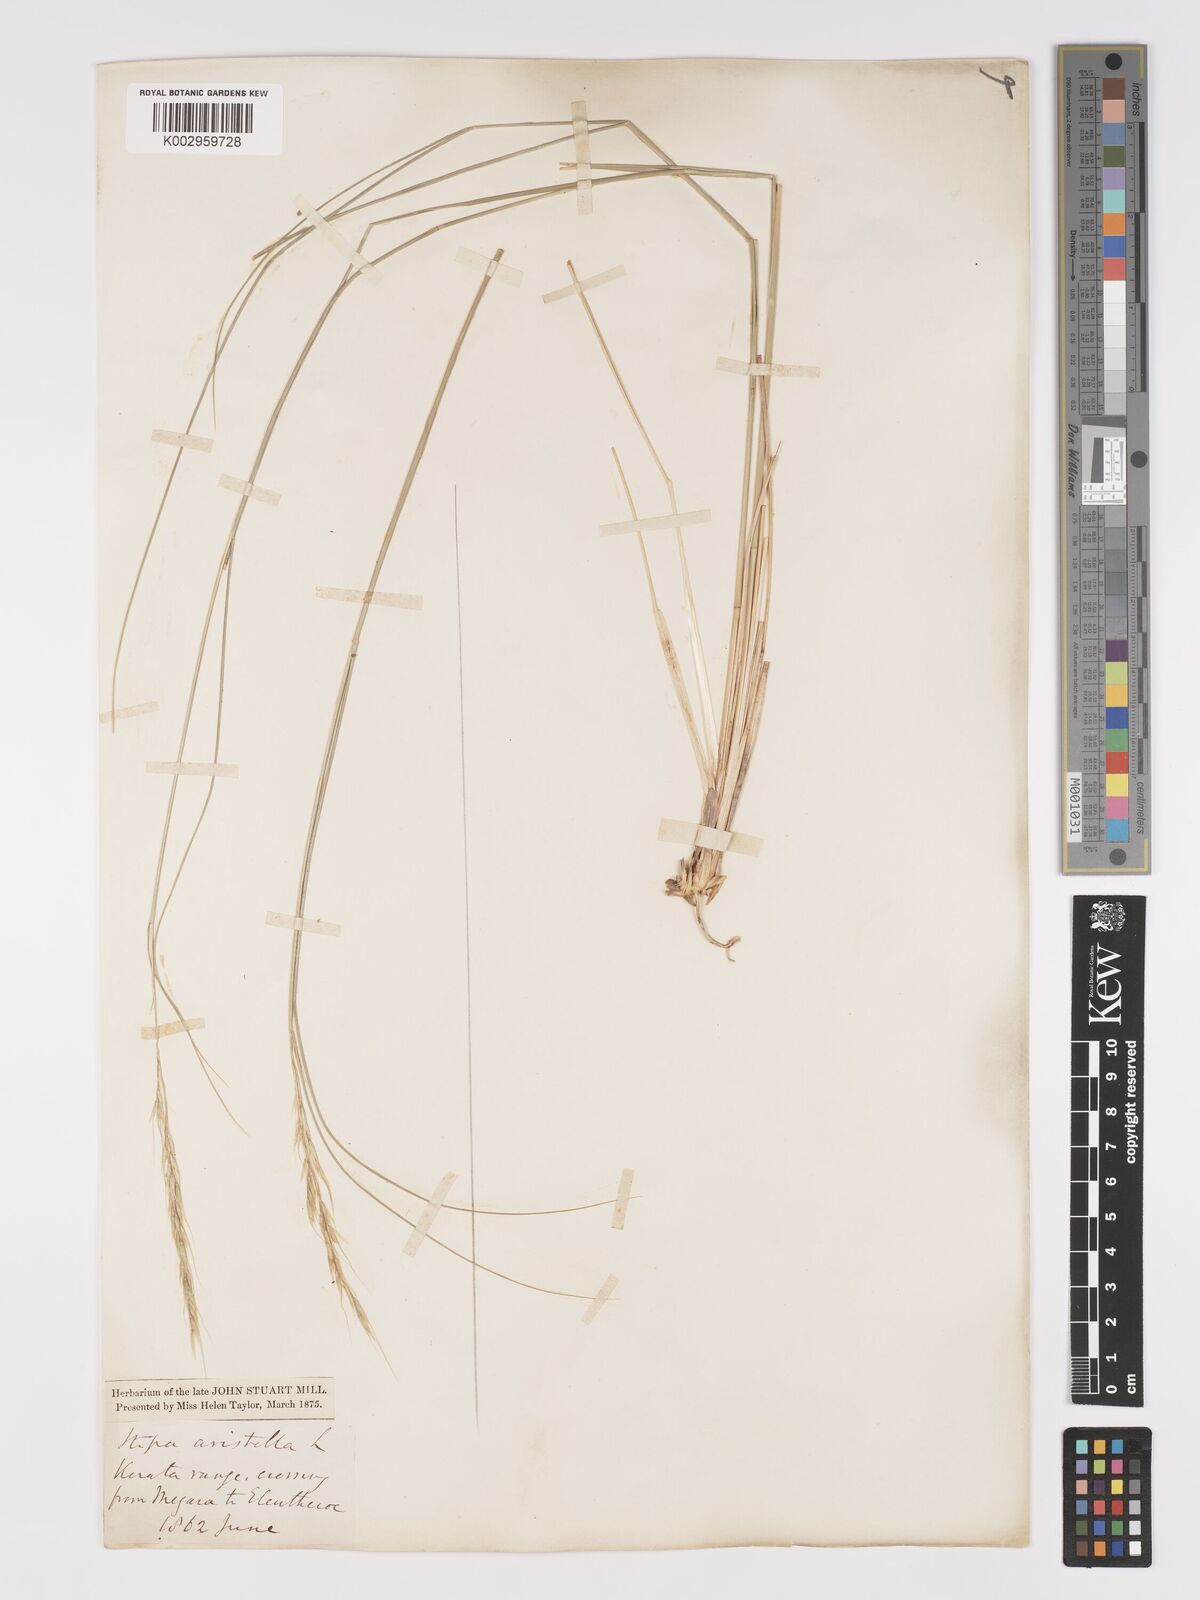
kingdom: Plantae
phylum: Tracheophyta
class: Liliopsida
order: Poales
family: Poaceae
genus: Achnatherum
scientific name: Achnatherum bromoides
